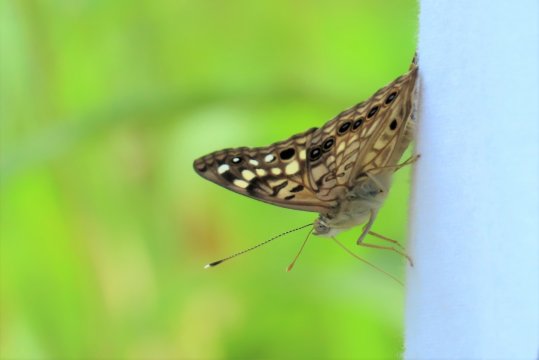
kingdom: Animalia
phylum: Arthropoda
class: Insecta
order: Lepidoptera
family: Nymphalidae
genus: Asterocampa
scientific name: Asterocampa celtis
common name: Hackberry Emperor
